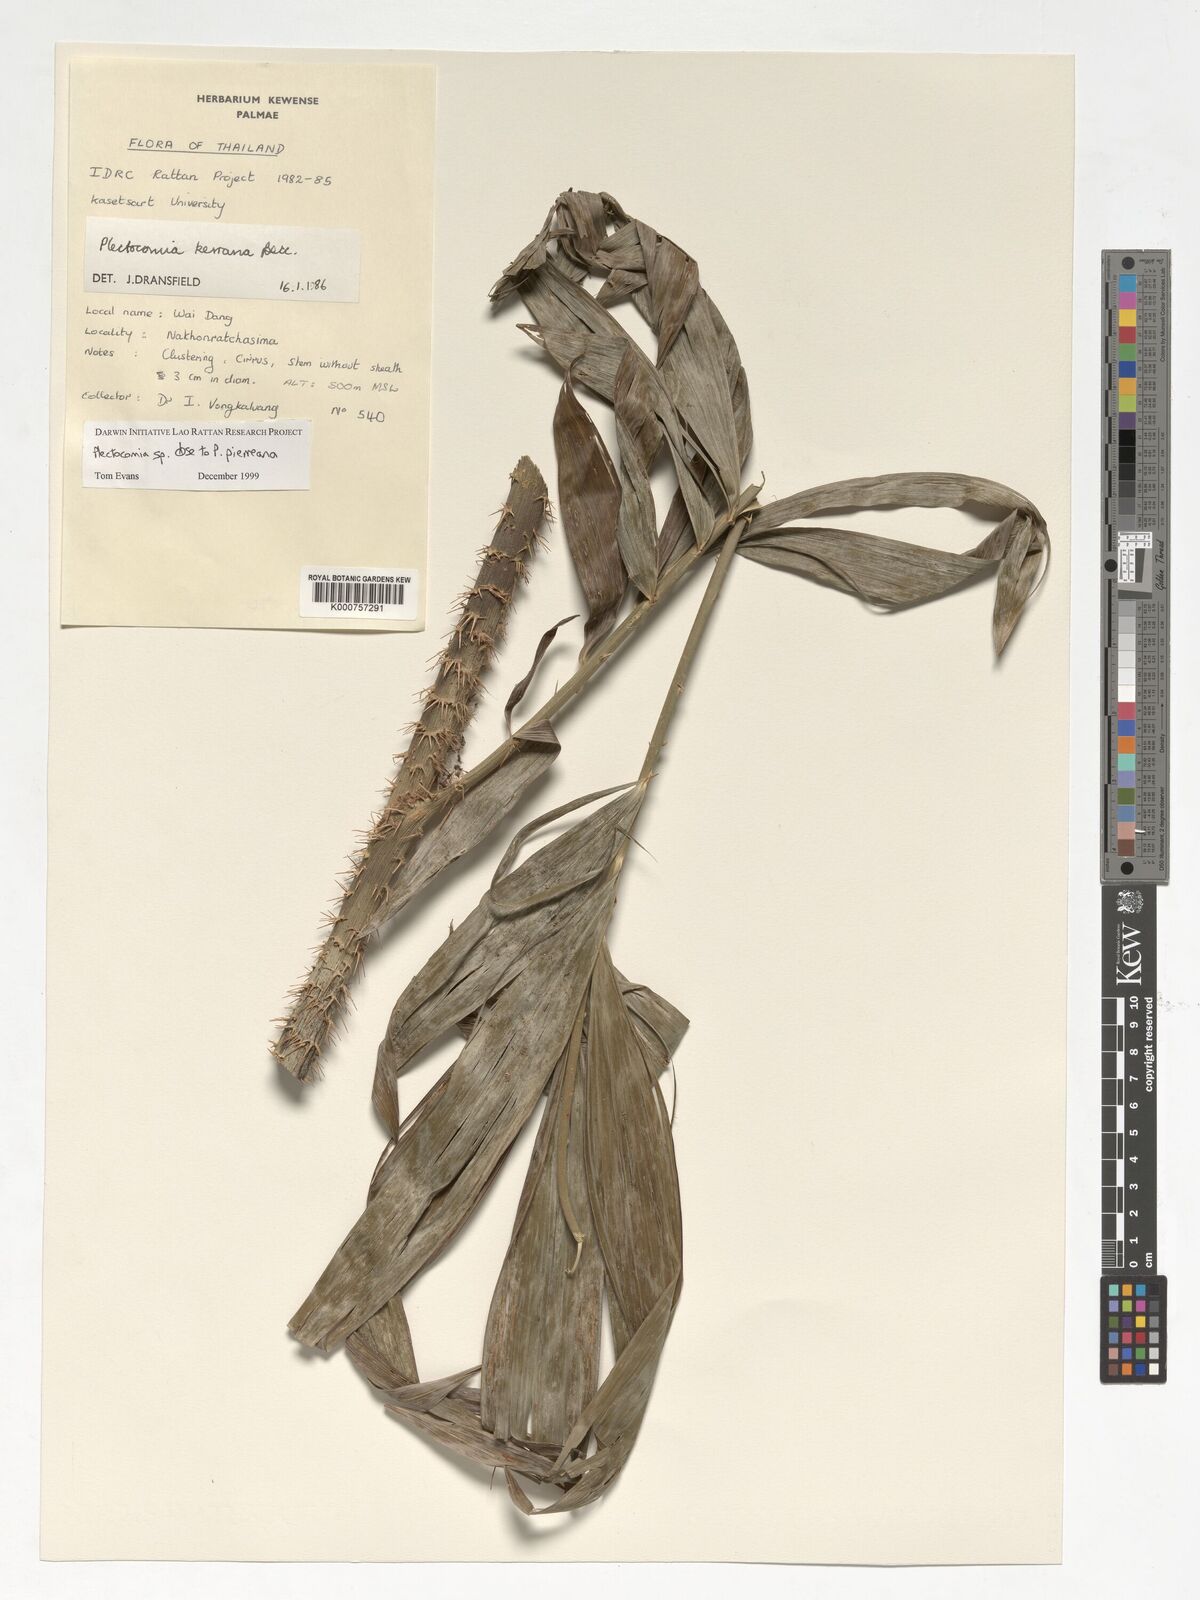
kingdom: Plantae
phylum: Tracheophyta
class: Liliopsida
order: Arecales
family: Arecaceae
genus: Plectocomia
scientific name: Plectocomia pierreana
